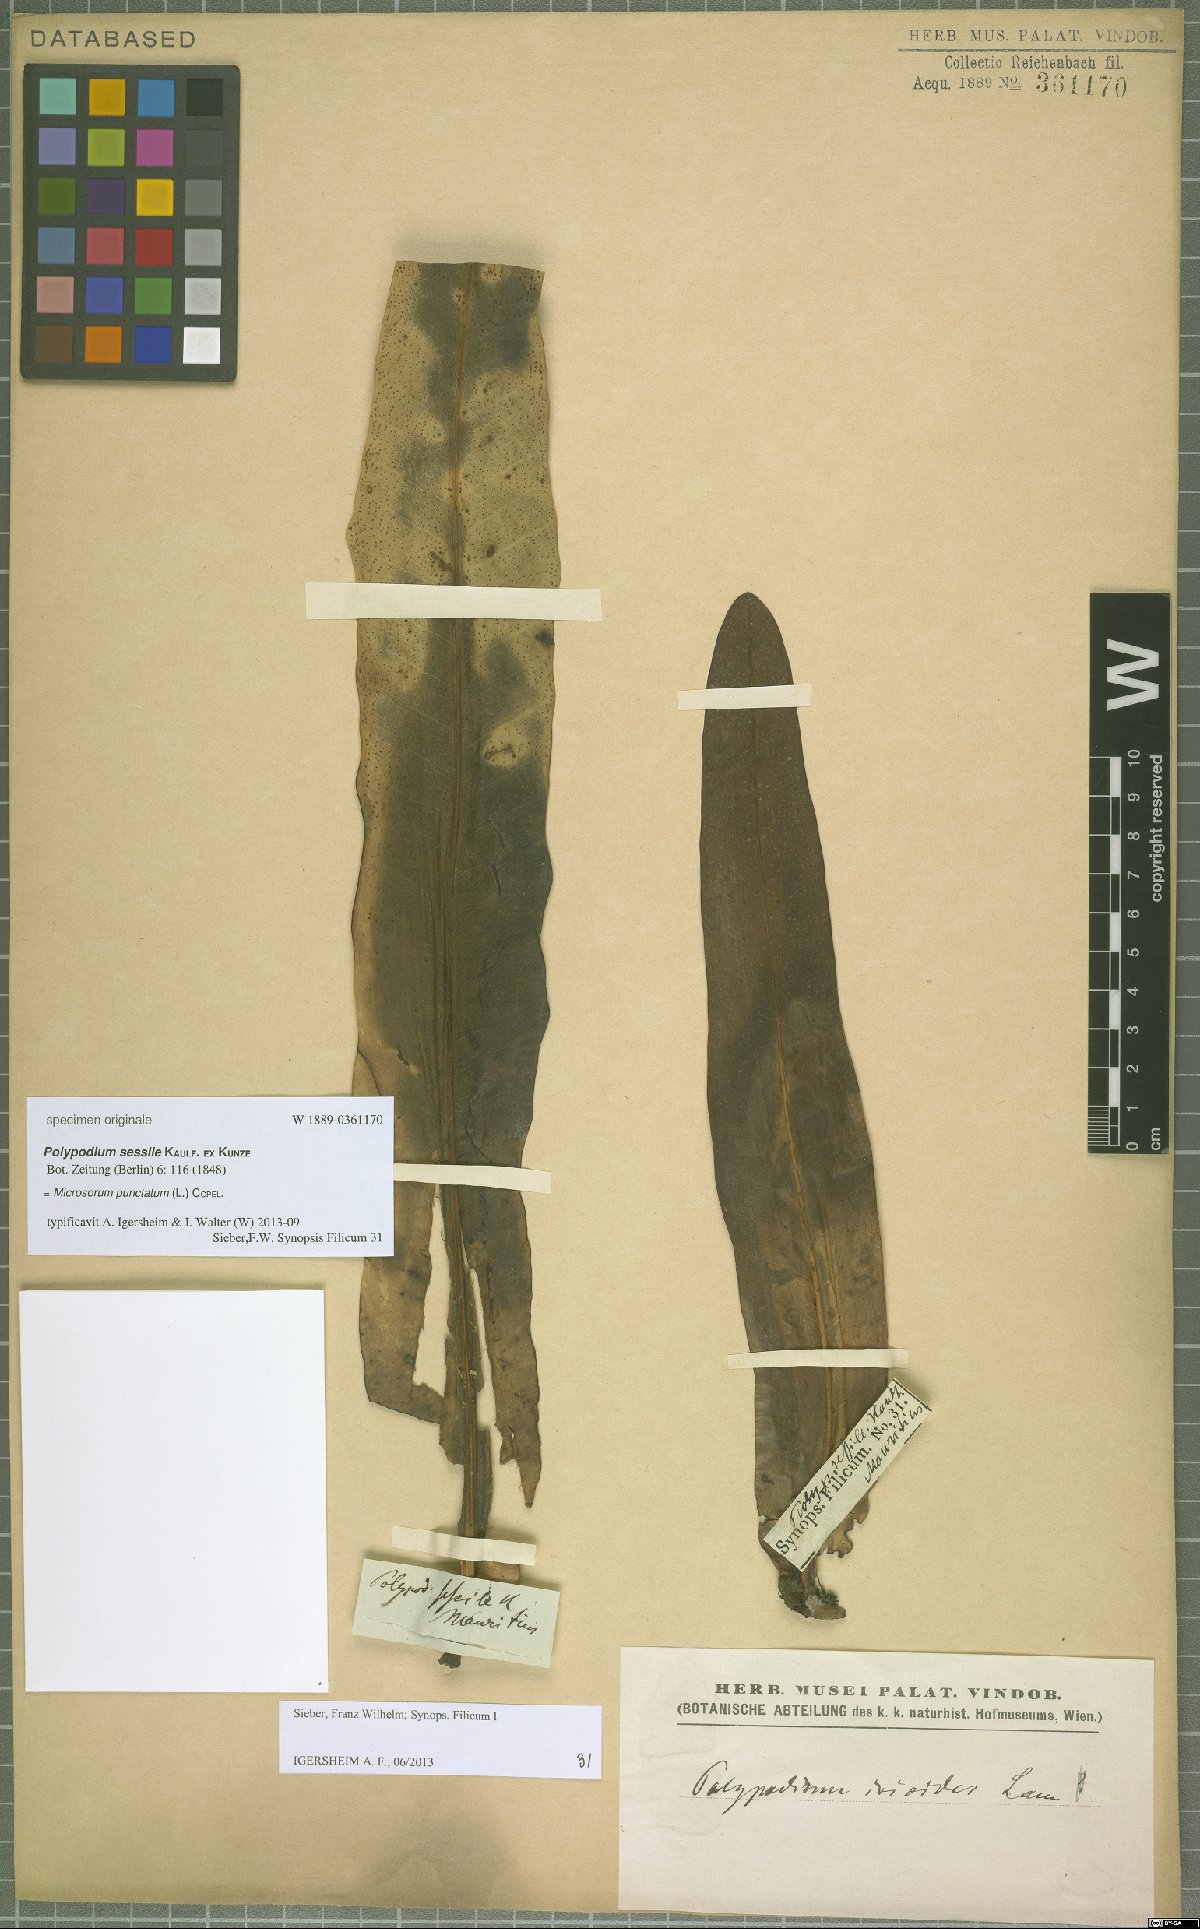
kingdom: Plantae
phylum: Tracheophyta
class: Polypodiopsida
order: Polypodiales
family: Polypodiaceae
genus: Microsorum
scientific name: Microsorum punctatum
